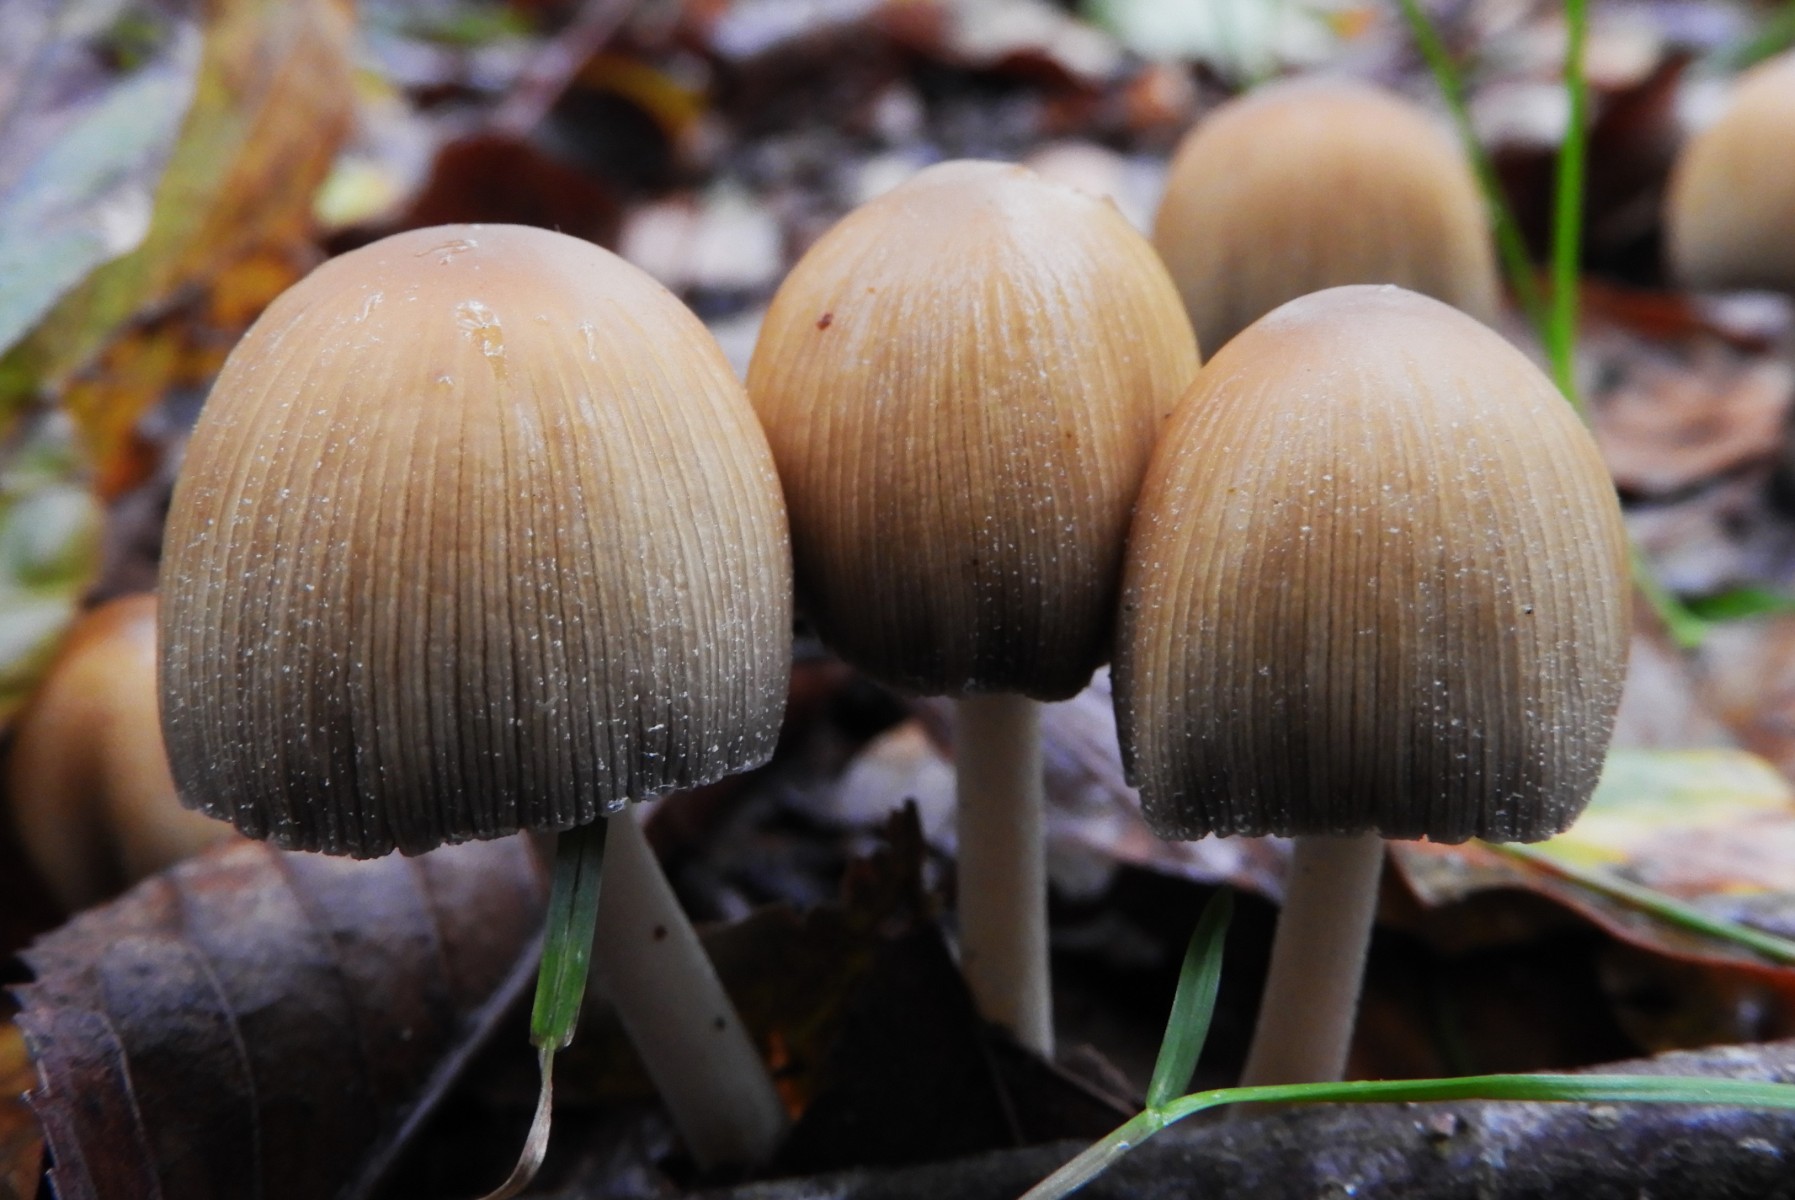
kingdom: Fungi
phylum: Basidiomycota
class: Agaricomycetes
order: Agaricales
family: Psathyrellaceae
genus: Coprinellus
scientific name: Coprinellus micaceus
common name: glimmer-blækhat
